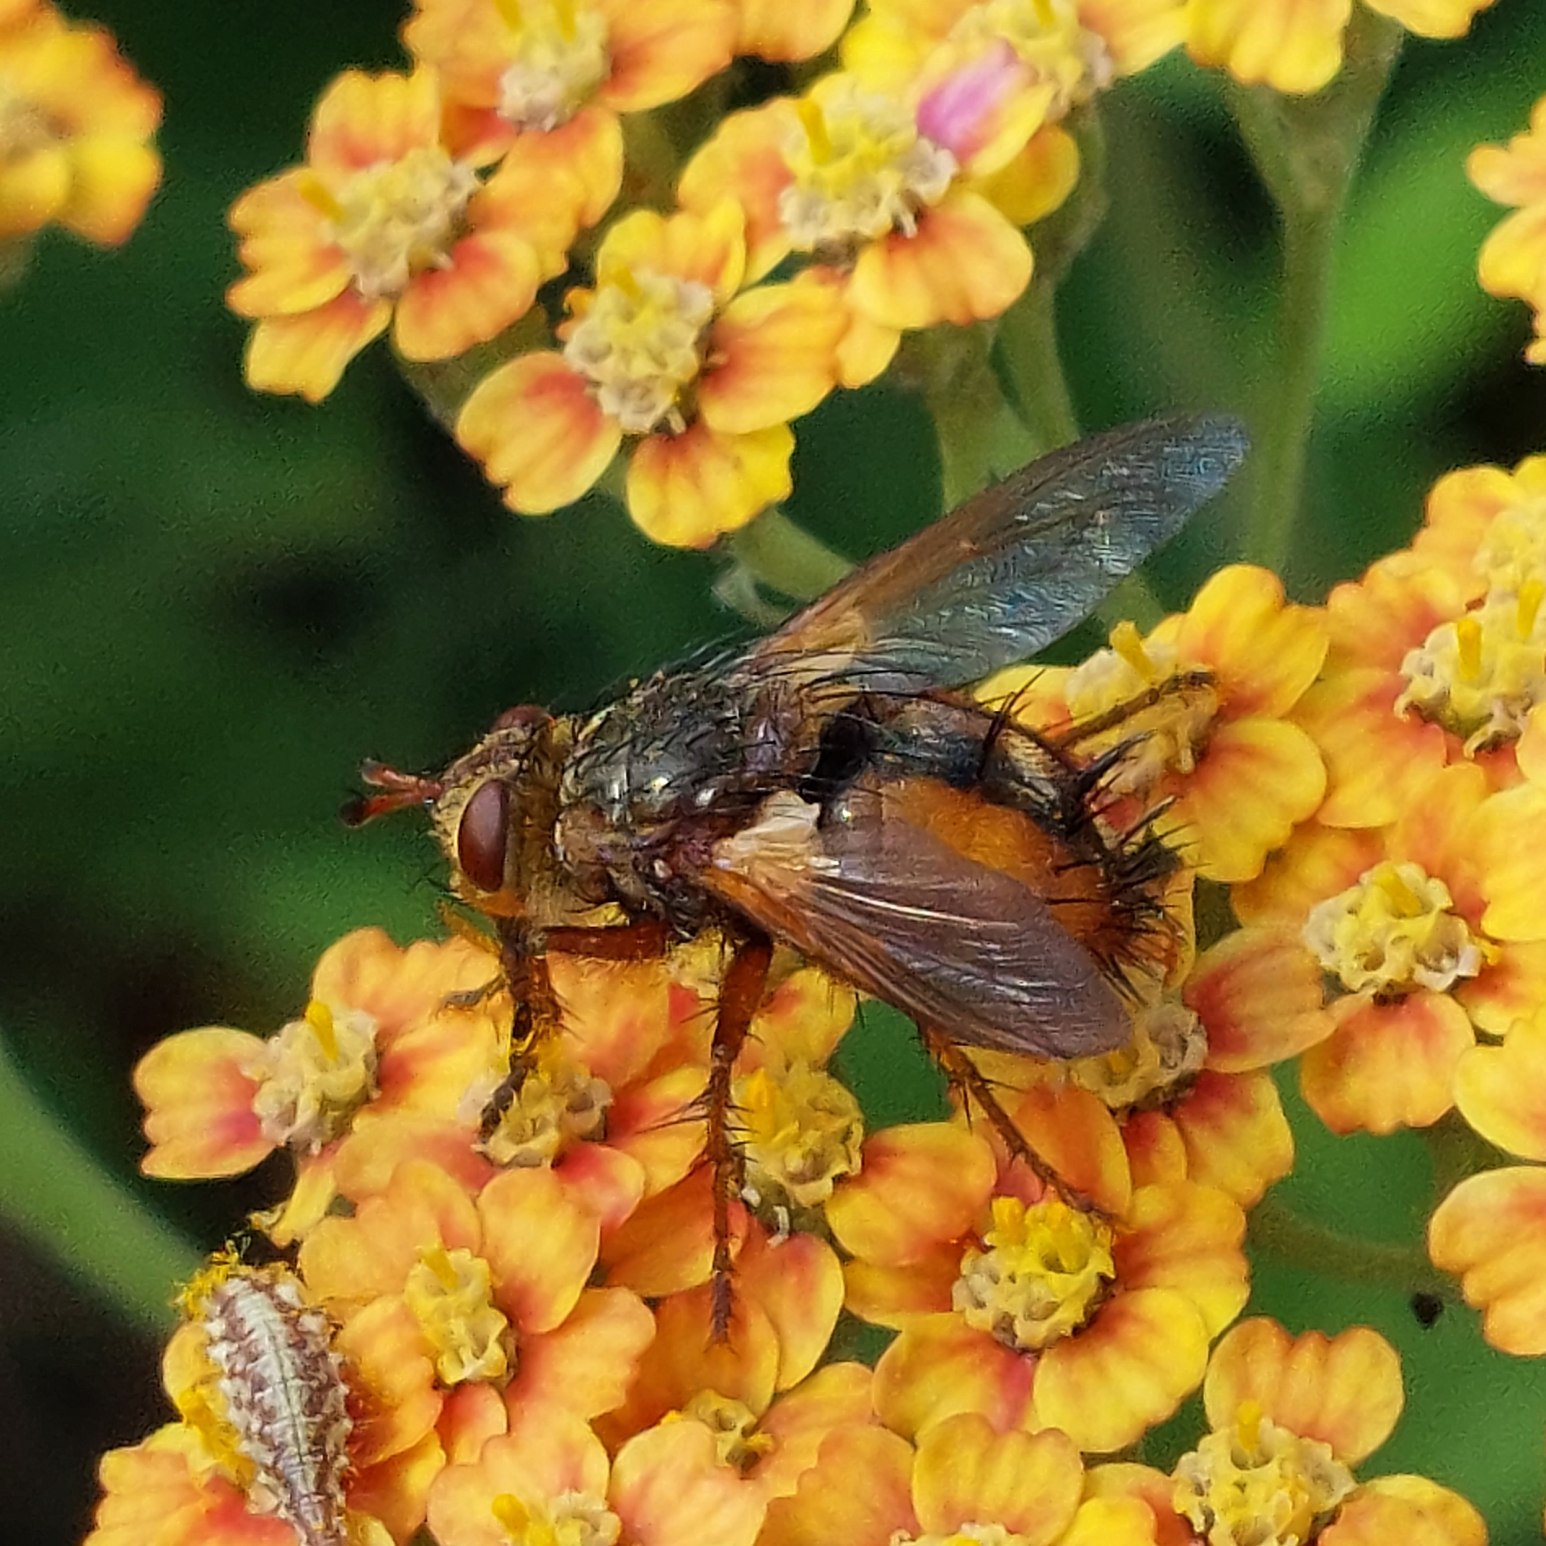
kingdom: Animalia
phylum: Arthropoda
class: Insecta
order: Diptera
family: Tachinidae
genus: Tachina
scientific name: Tachina fera
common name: Mellemfluen oskar
